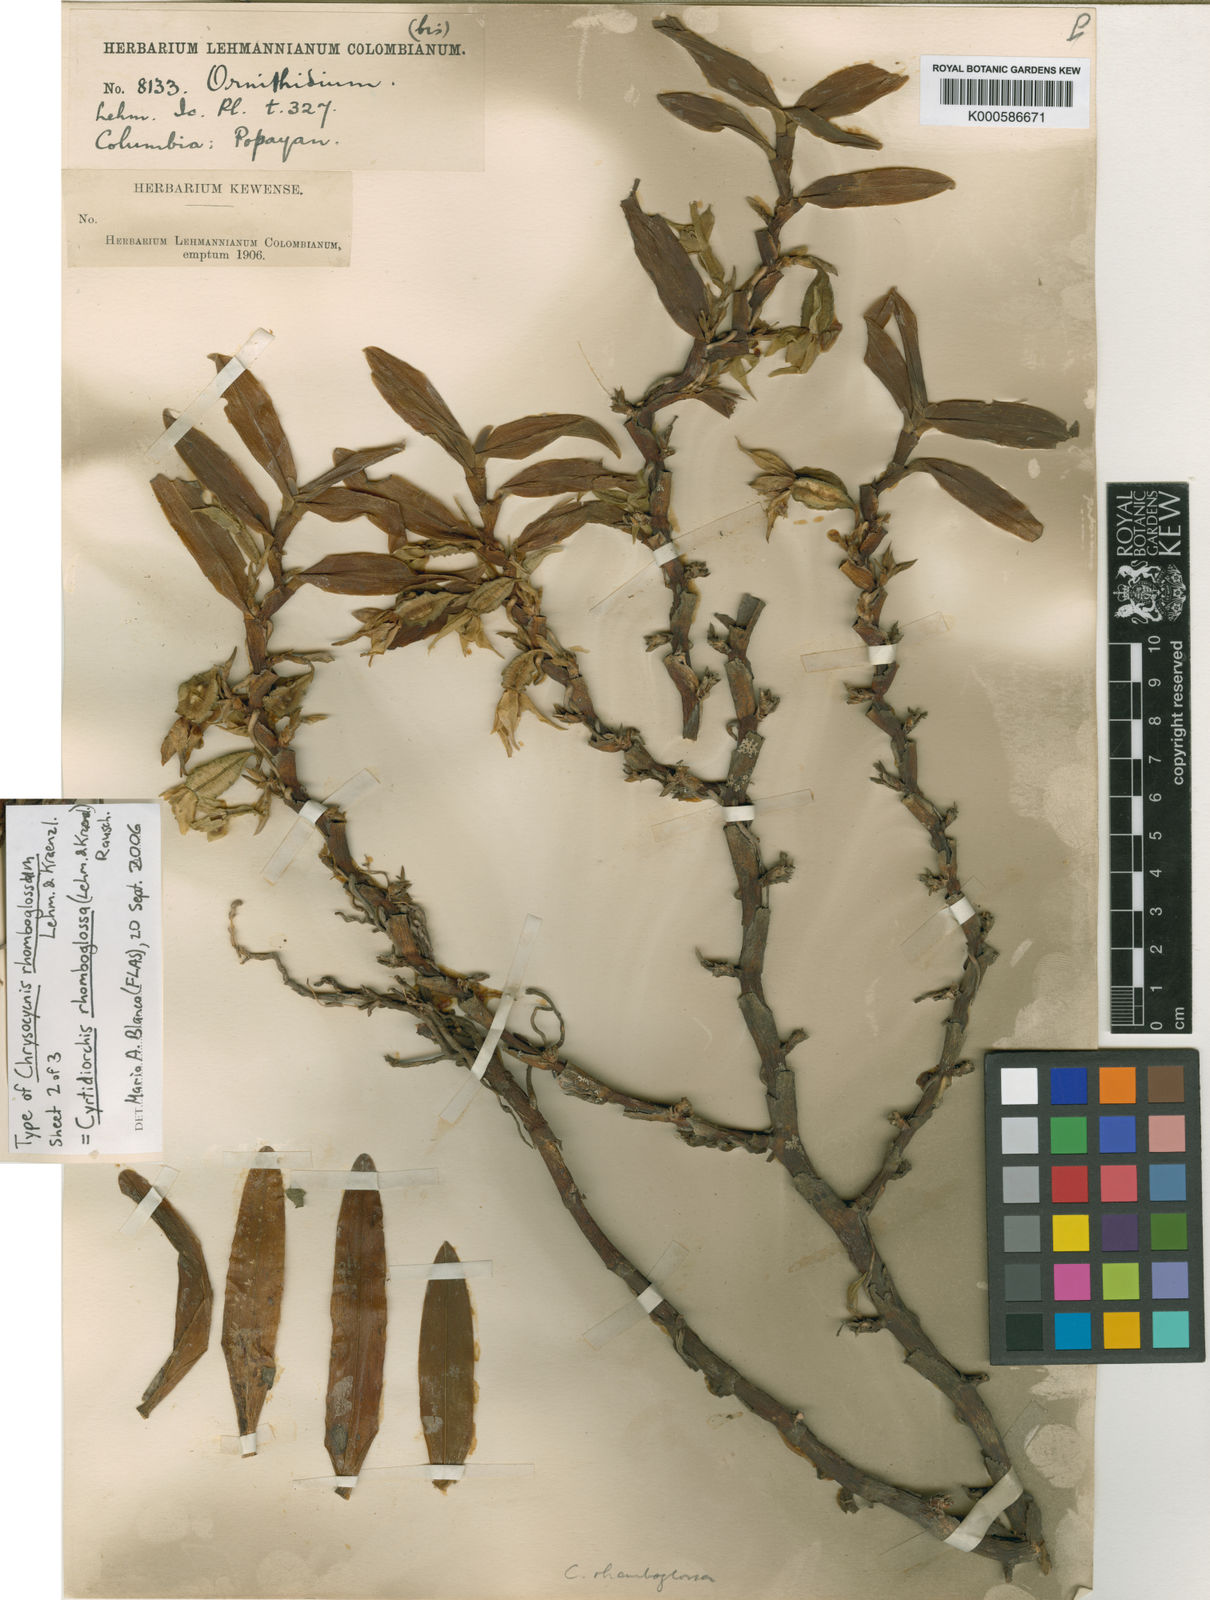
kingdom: Plantae
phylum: Tracheophyta
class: Liliopsida
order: Asparagales
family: Orchidaceae
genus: Maxillaria
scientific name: Maxillaria rhomboglossa
